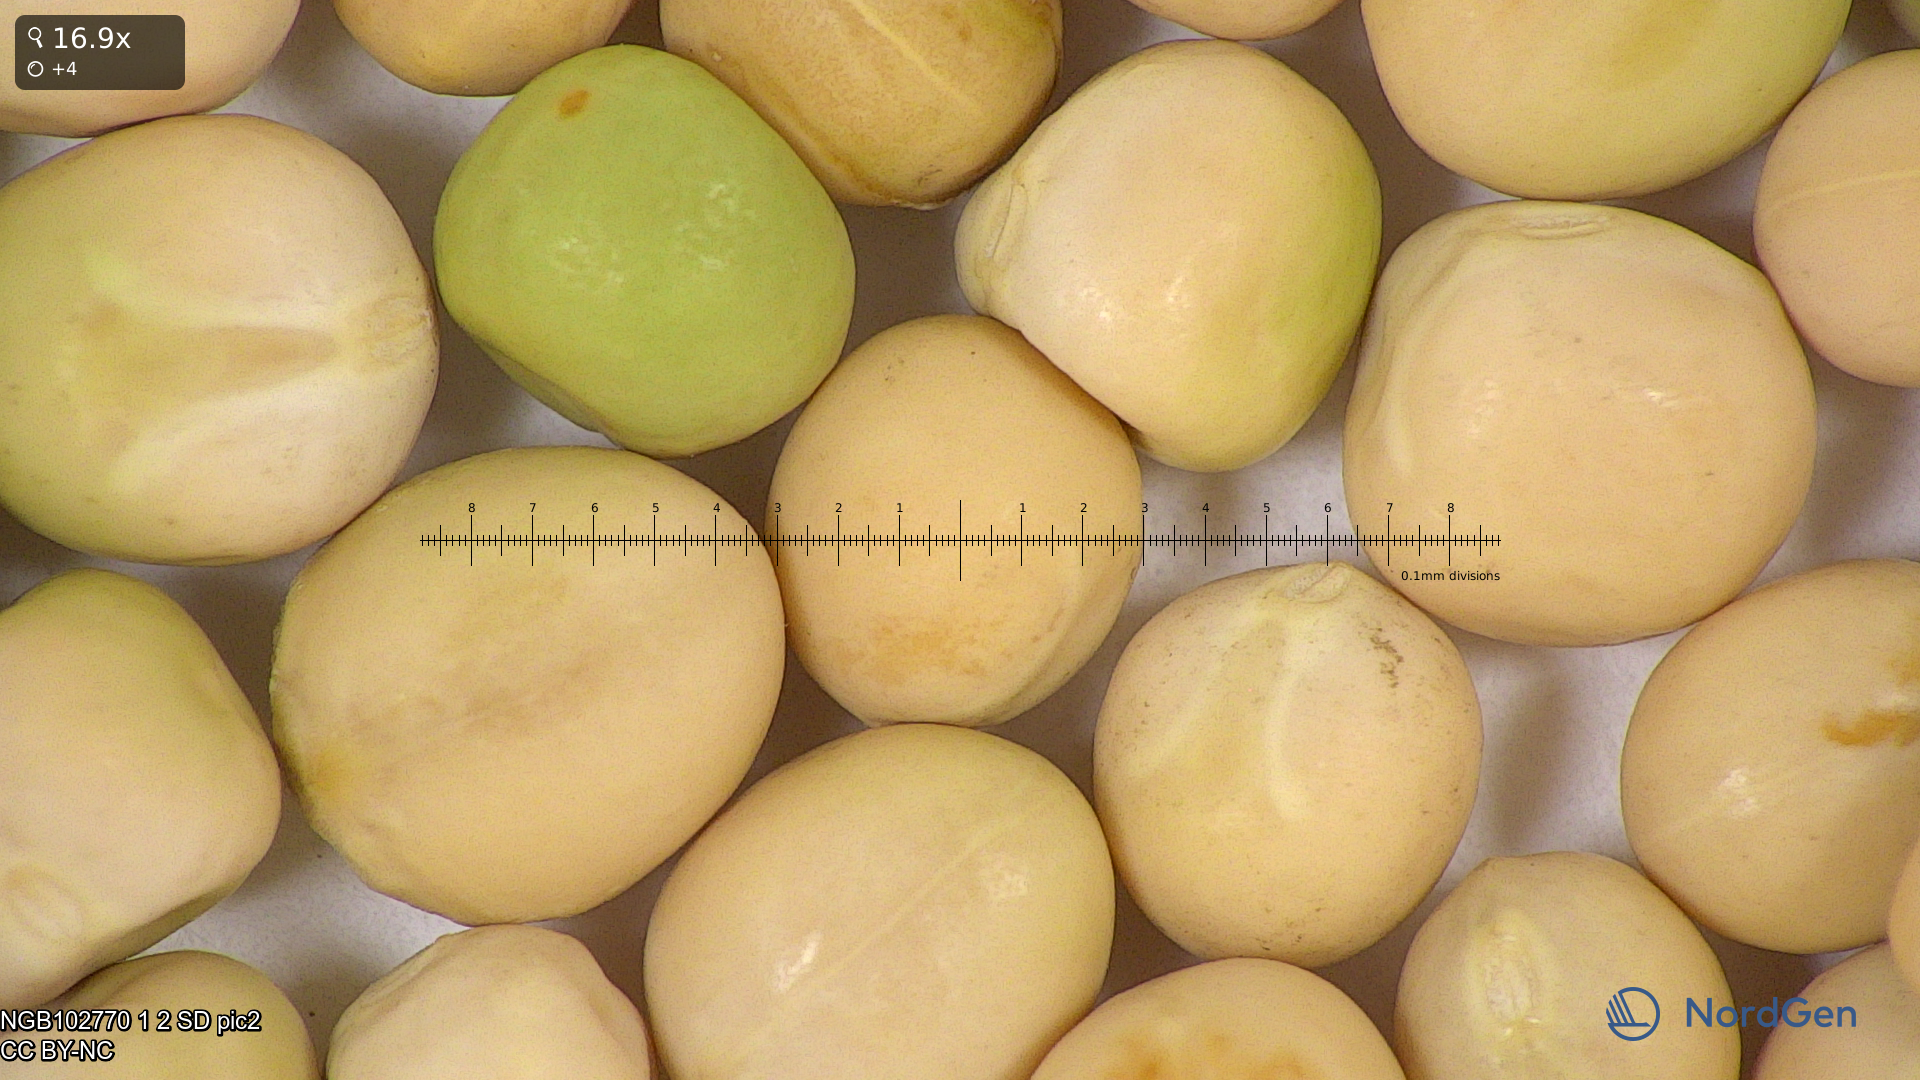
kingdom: Plantae
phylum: Tracheophyta
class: Magnoliopsida
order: Fabales
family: Fabaceae
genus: Lathyrus
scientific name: Lathyrus oleraceus
